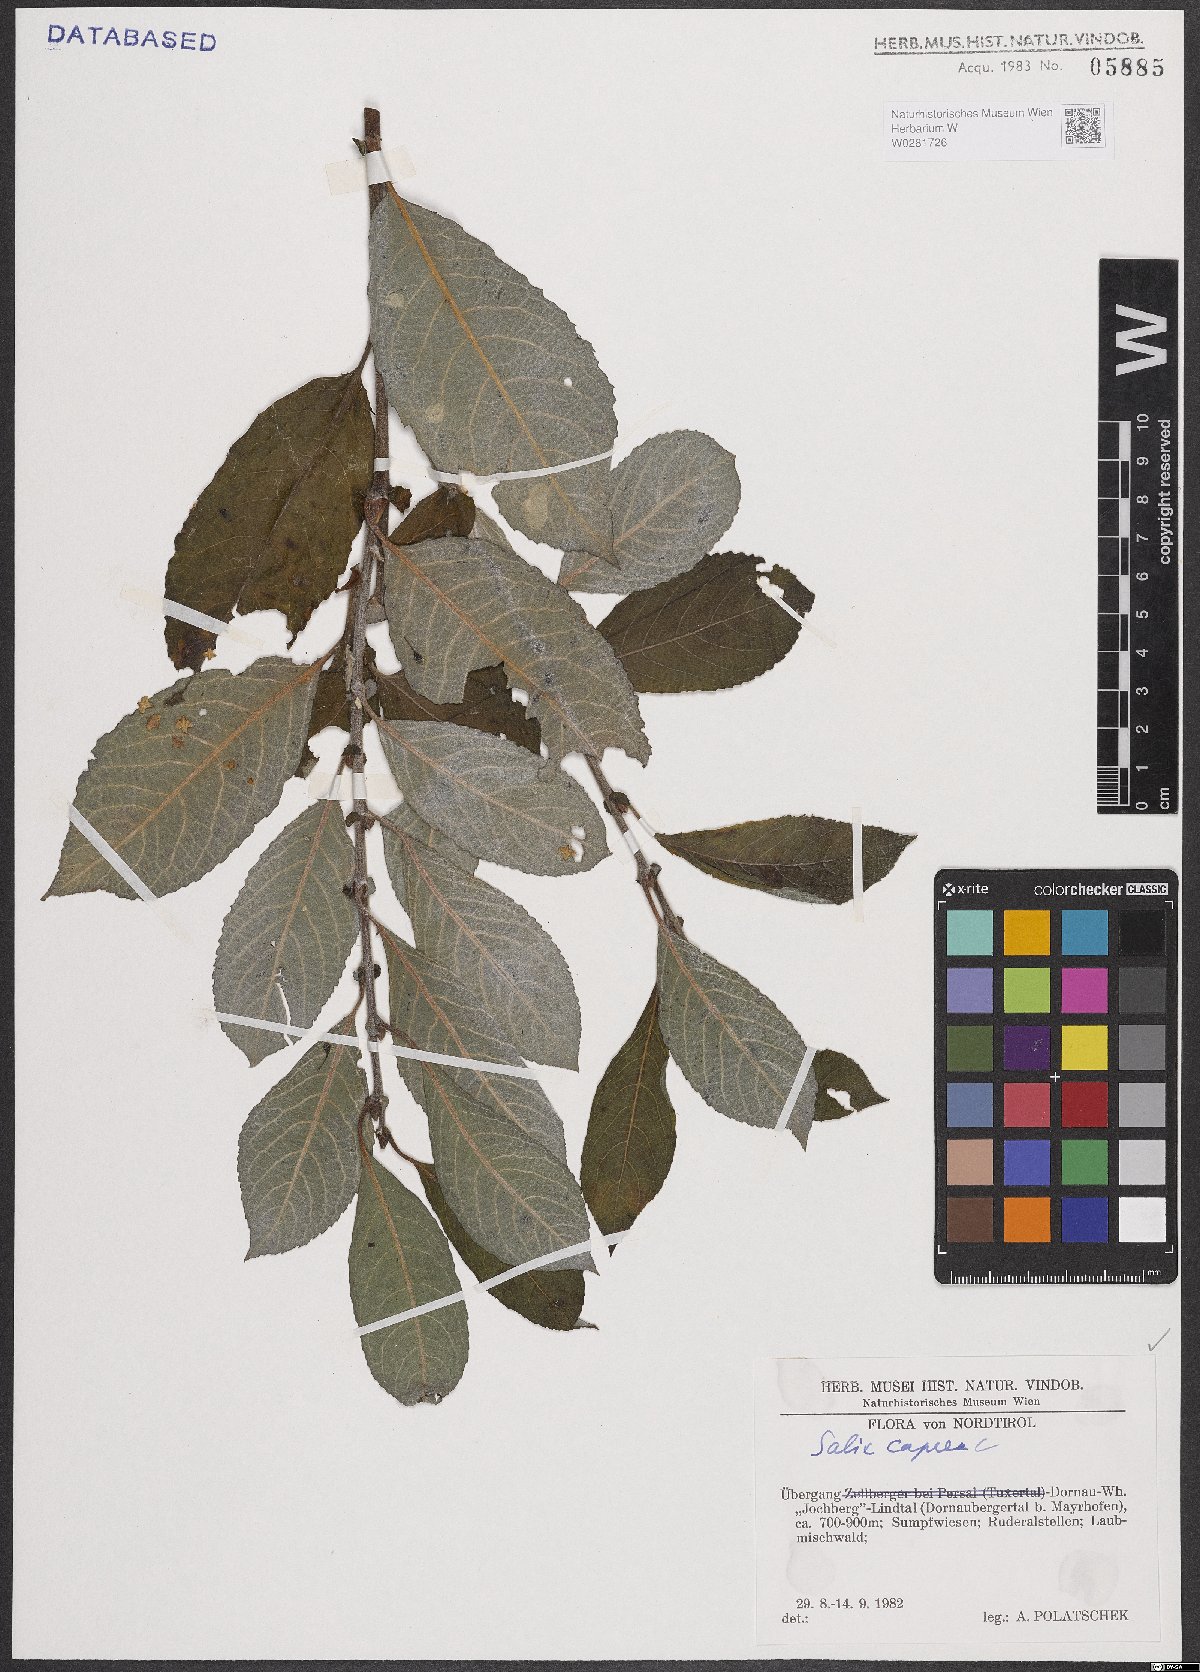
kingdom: Plantae
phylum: Tracheophyta
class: Magnoliopsida
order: Malpighiales
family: Salicaceae
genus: Salix
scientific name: Salix caprea
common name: Goat willow
